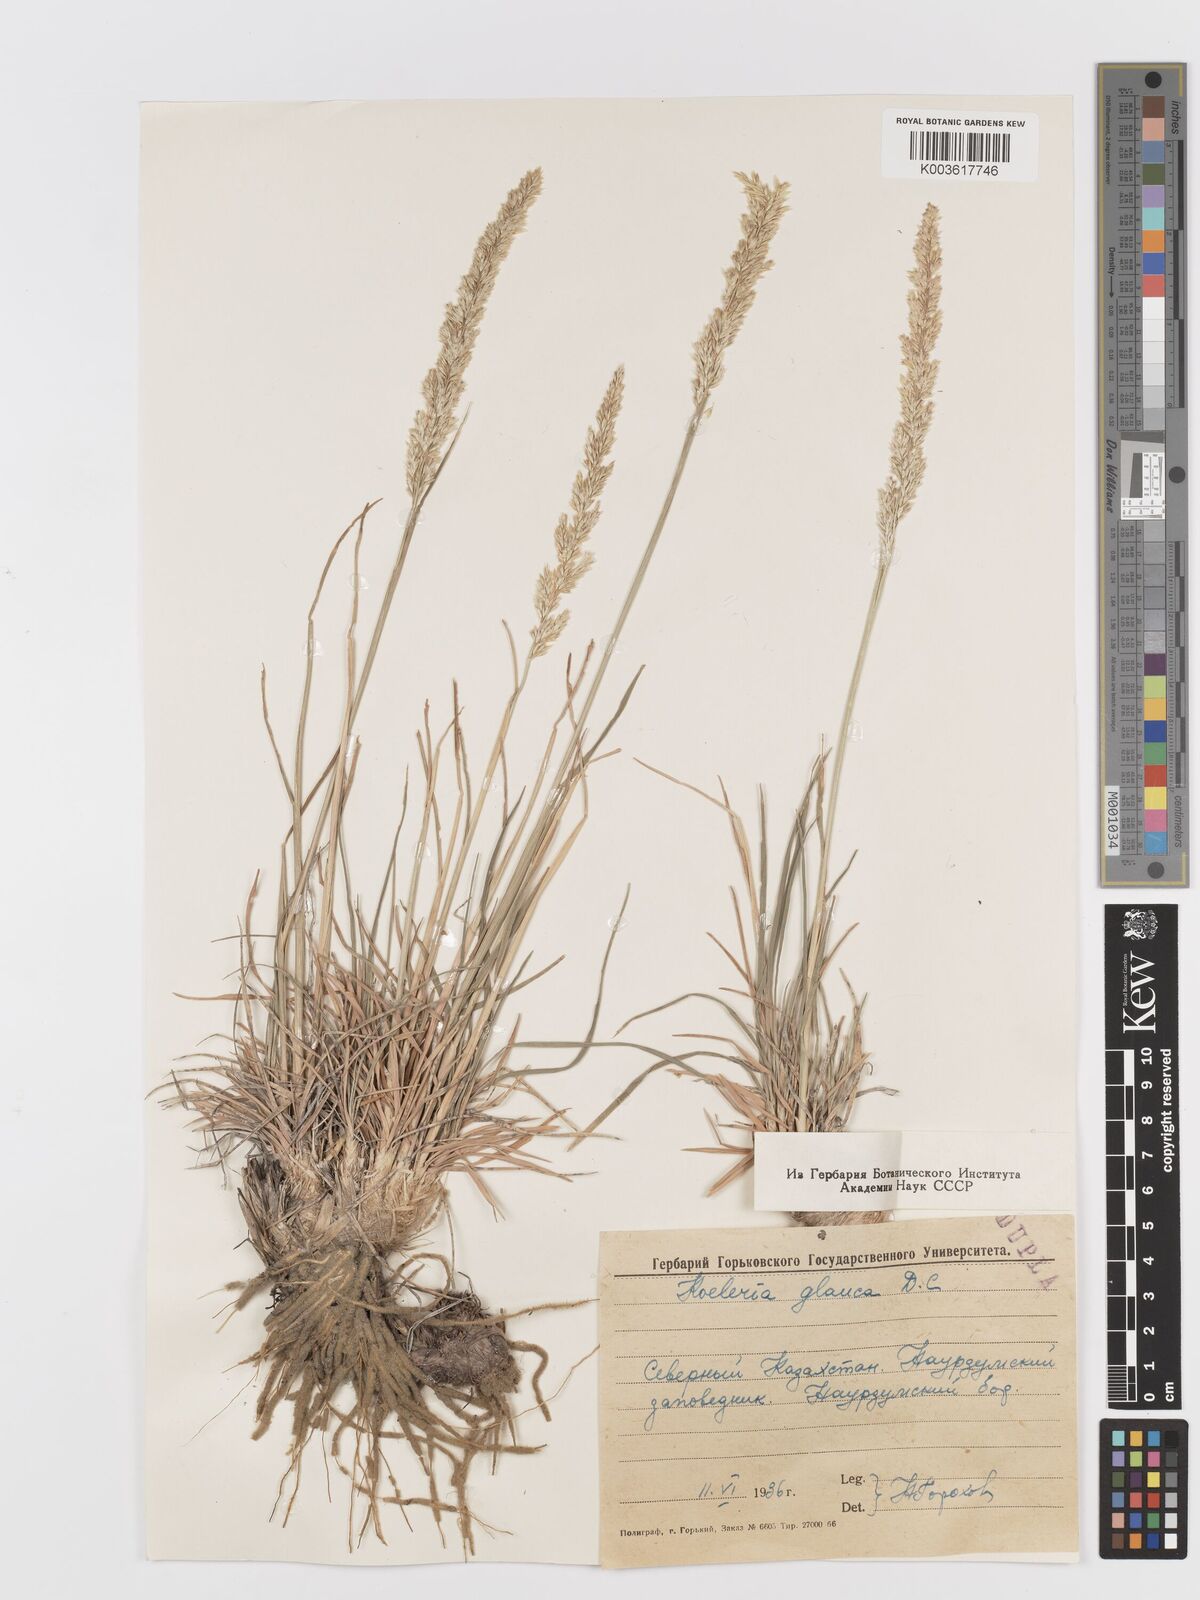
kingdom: Plantae
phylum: Tracheophyta
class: Liliopsida
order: Poales
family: Poaceae
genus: Koeleria
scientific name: Koeleria glauca
